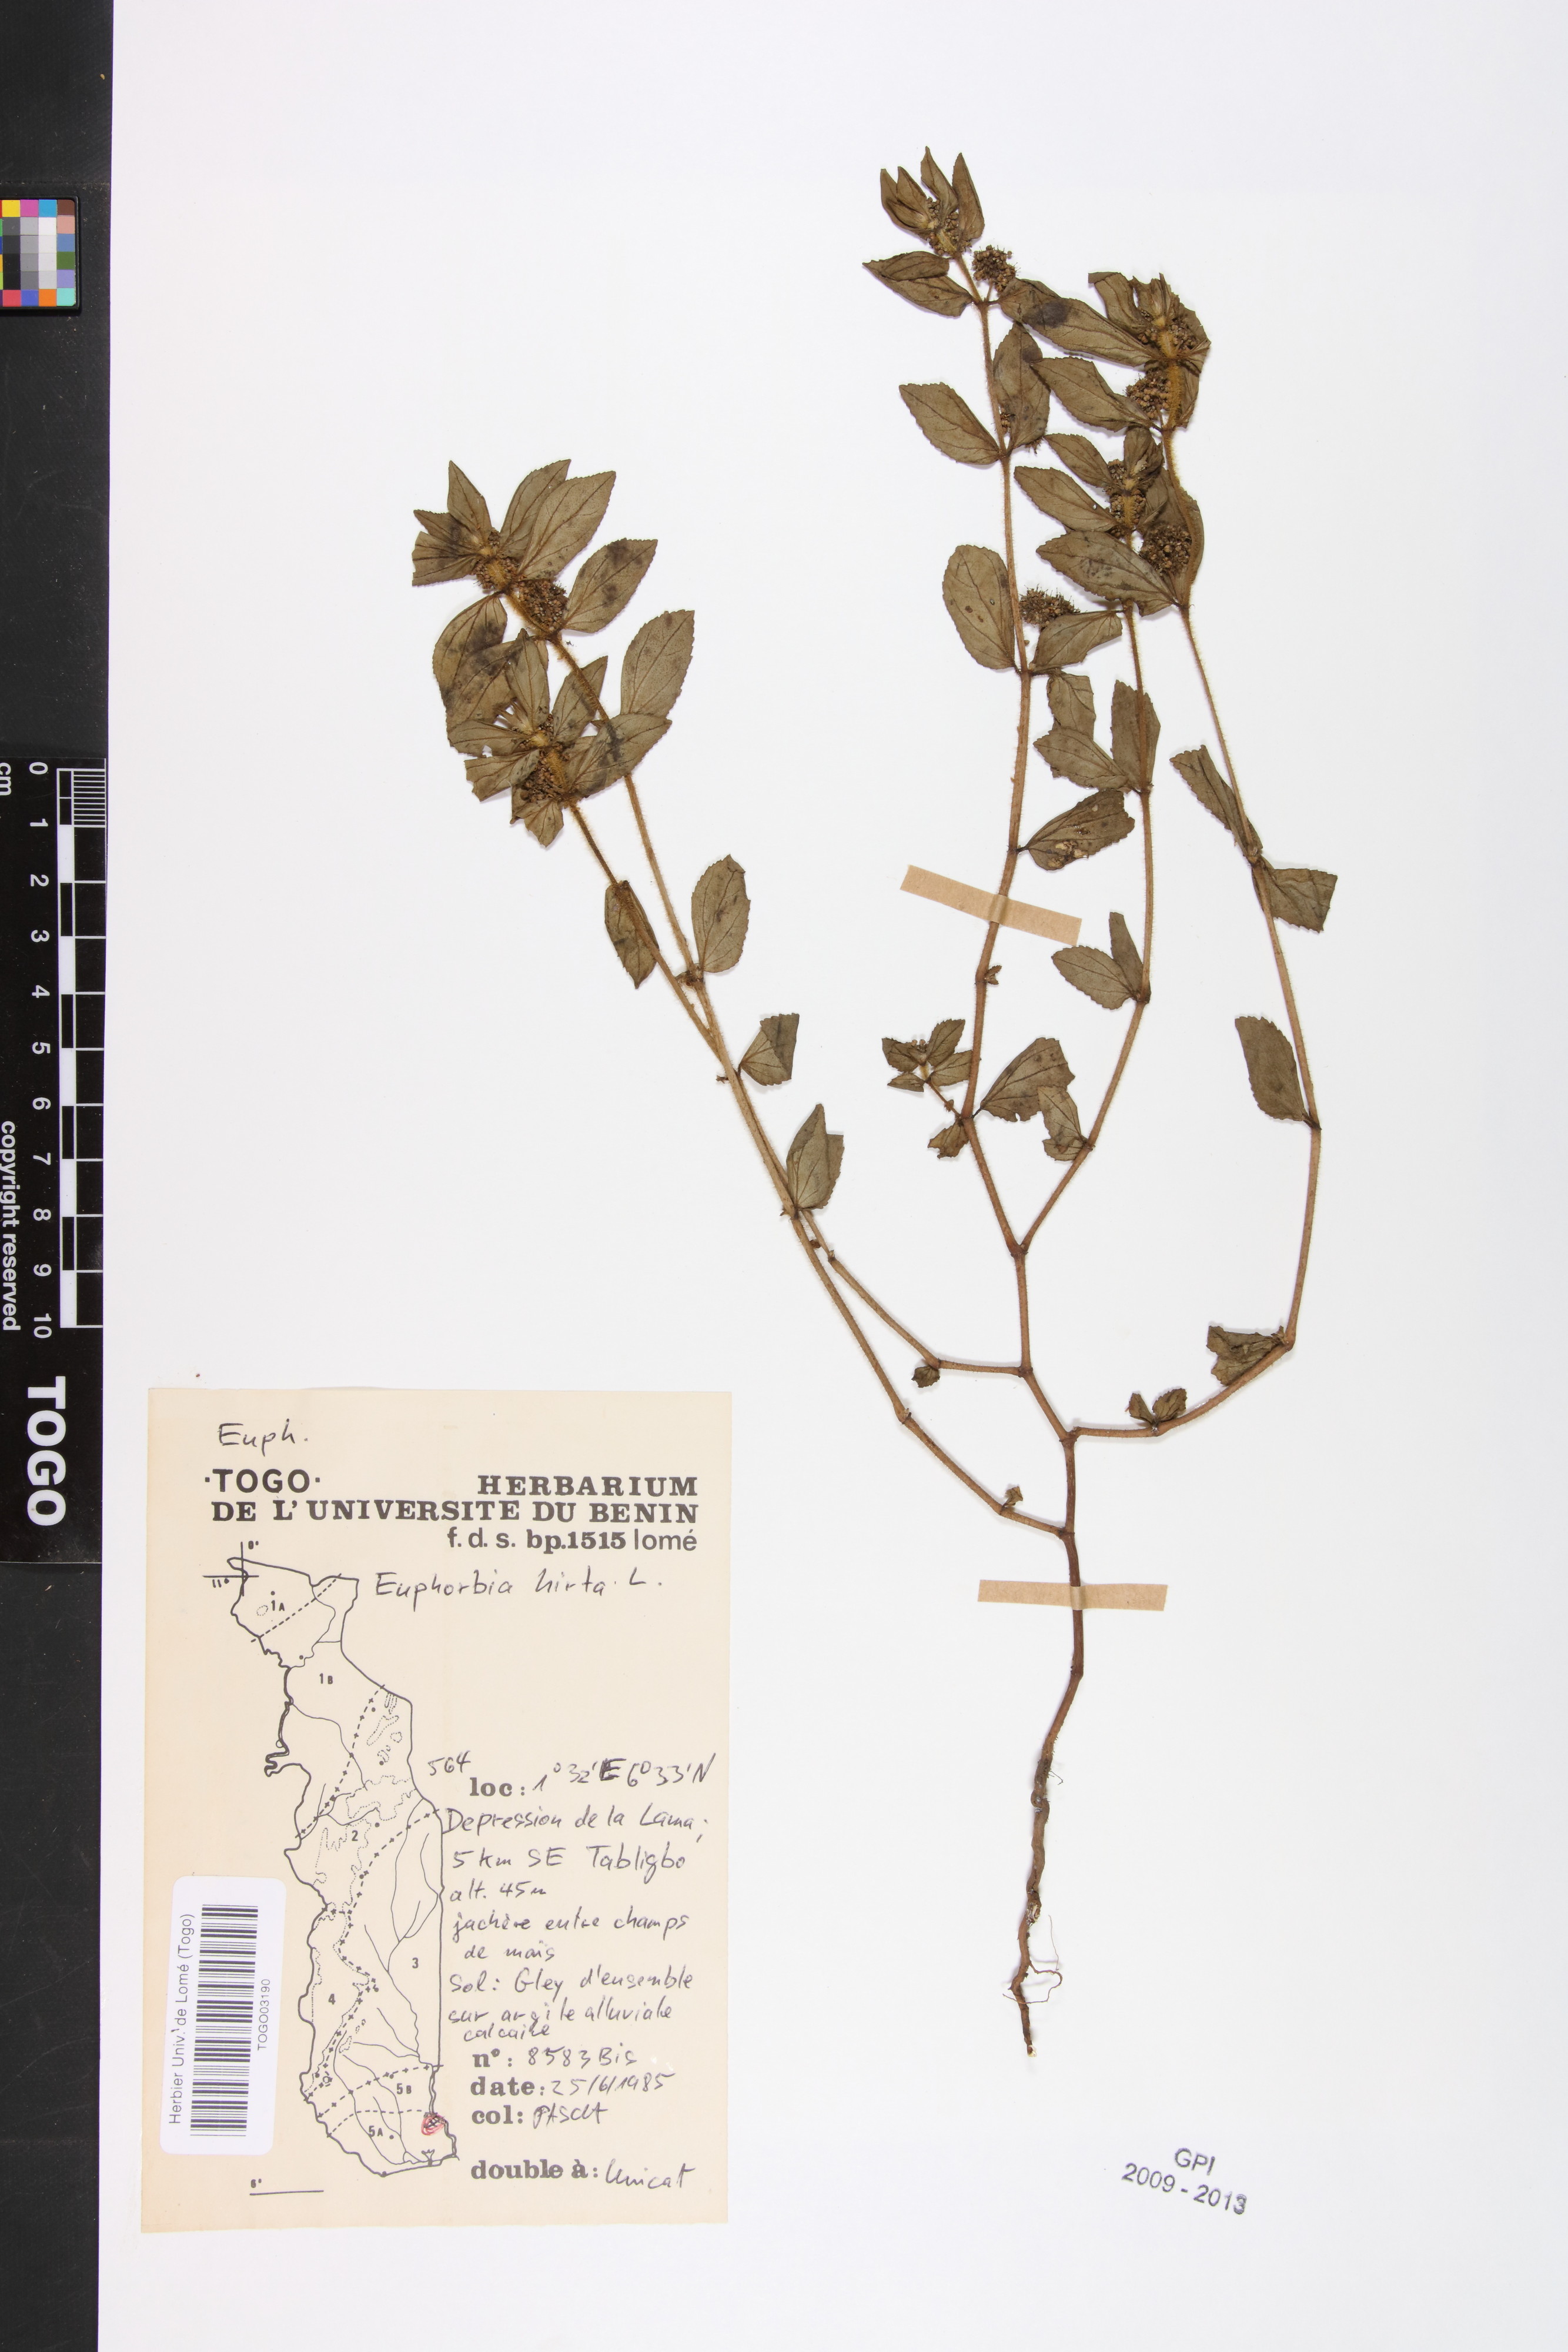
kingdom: Plantae
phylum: Tracheophyta
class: Magnoliopsida
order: Malpighiales
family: Euphorbiaceae
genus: Euphorbia
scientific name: Euphorbia hirta
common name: Pillpod sandmat
